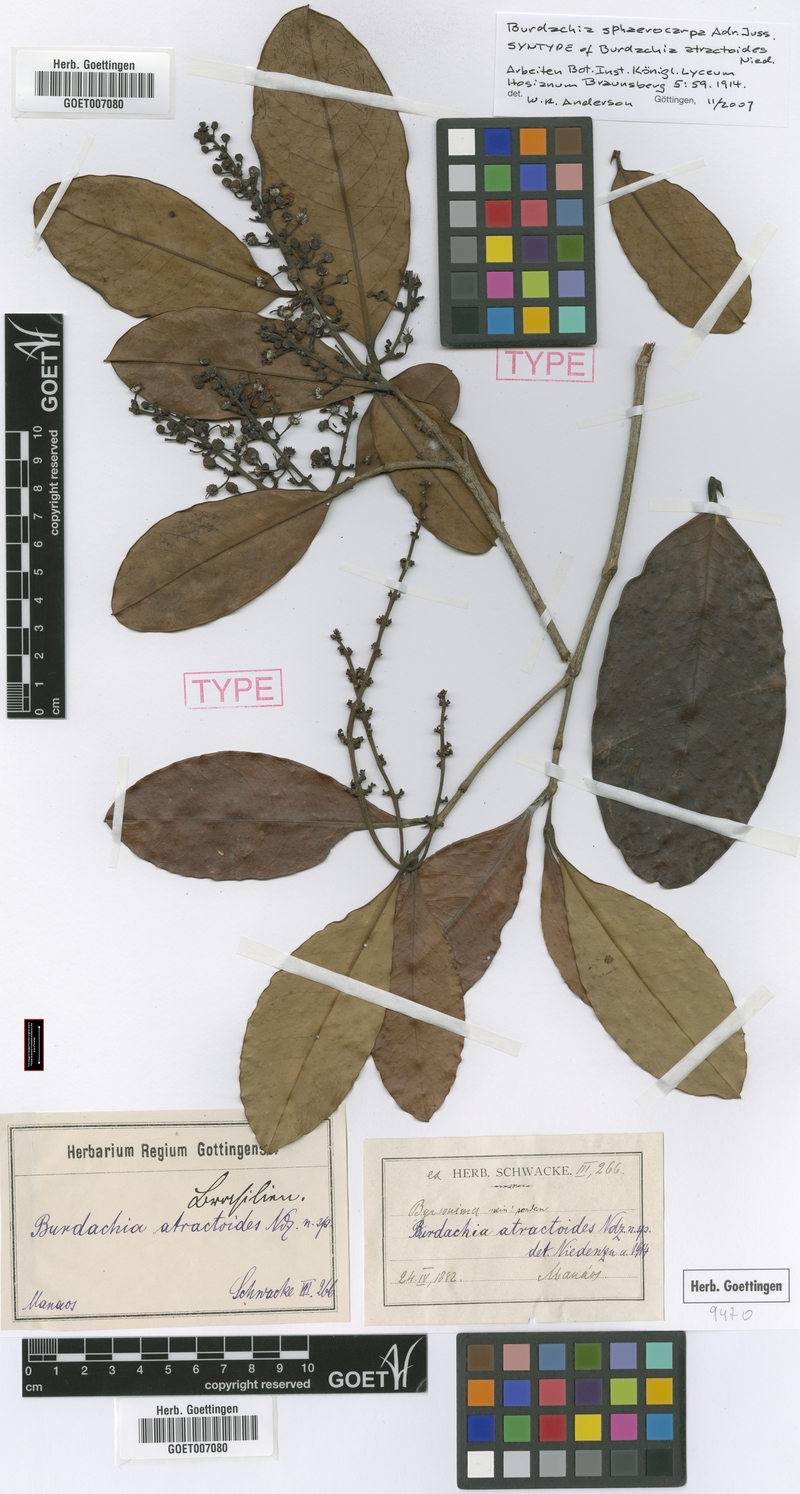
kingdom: Plantae
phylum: Tracheophyta
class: Magnoliopsida
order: Malpighiales
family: Malpighiaceae
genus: Burdachia
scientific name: Burdachia sphaerocarpa
